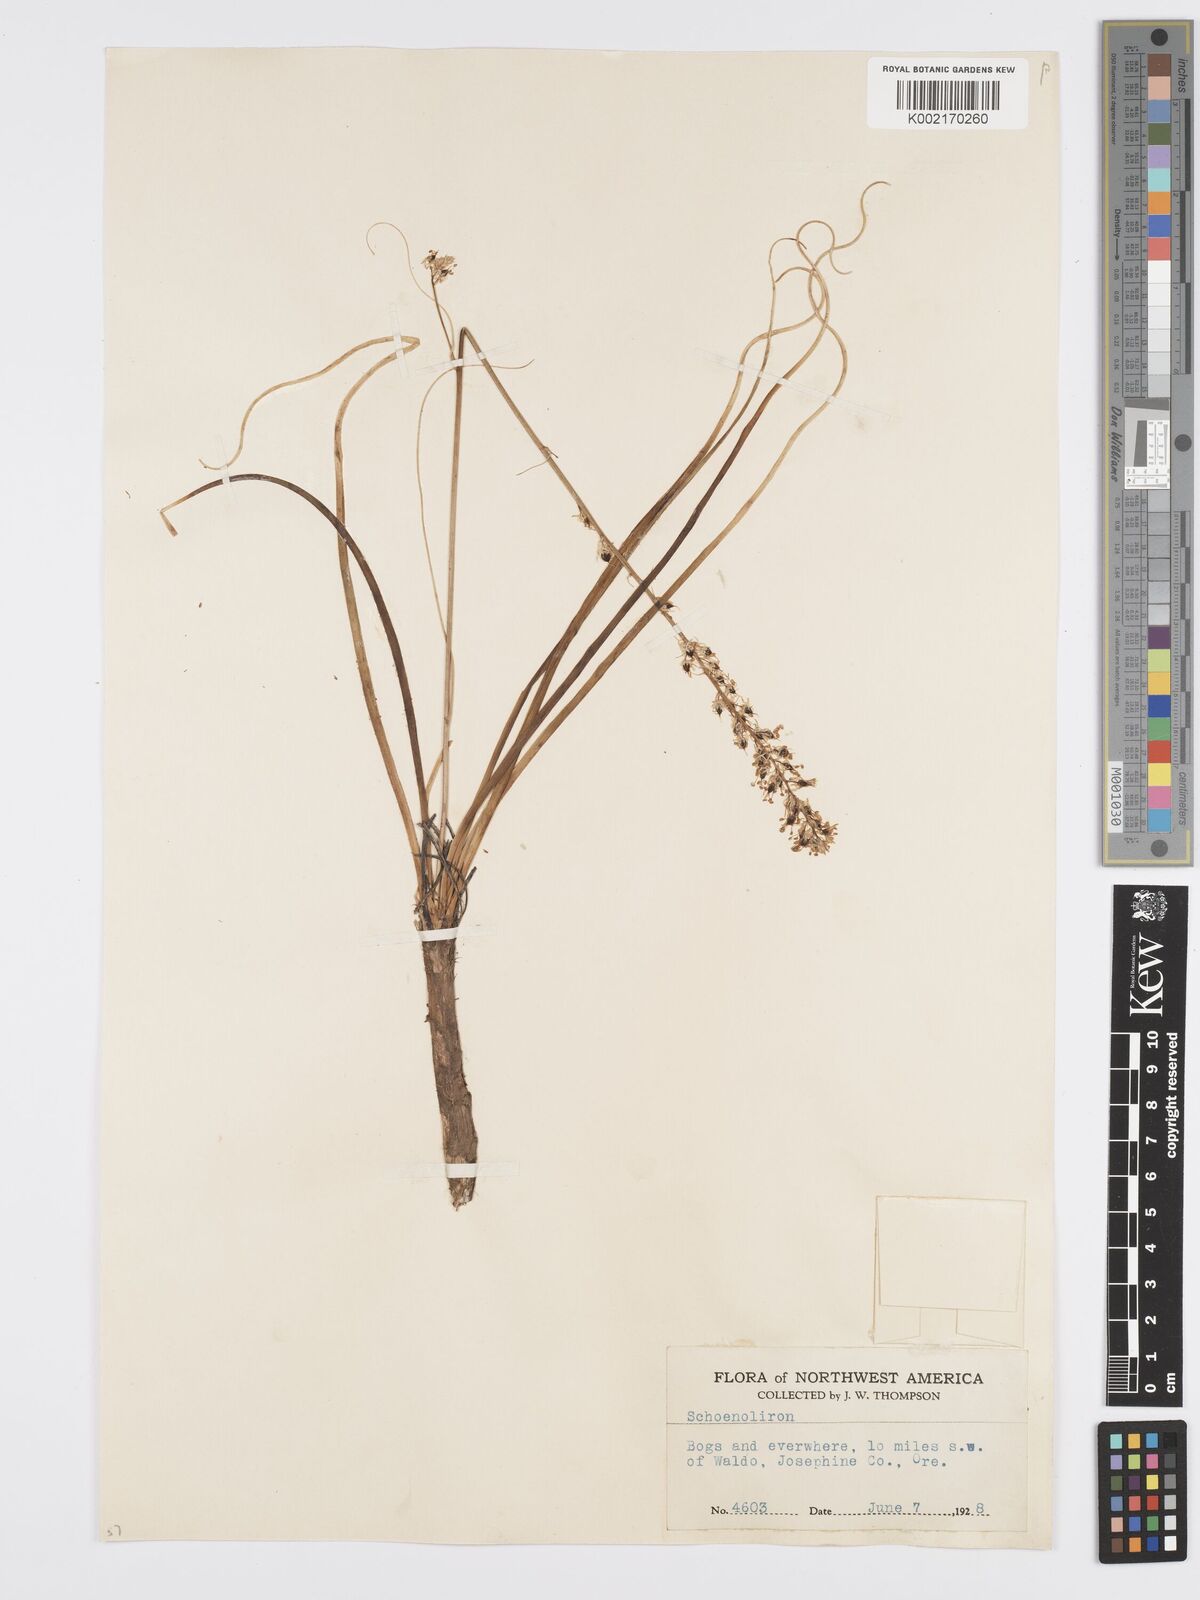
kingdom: Plantae
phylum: Tracheophyta
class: Liliopsida
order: Asparagales
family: Asparagaceae
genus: Hastingsia
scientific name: Hastingsia alba
